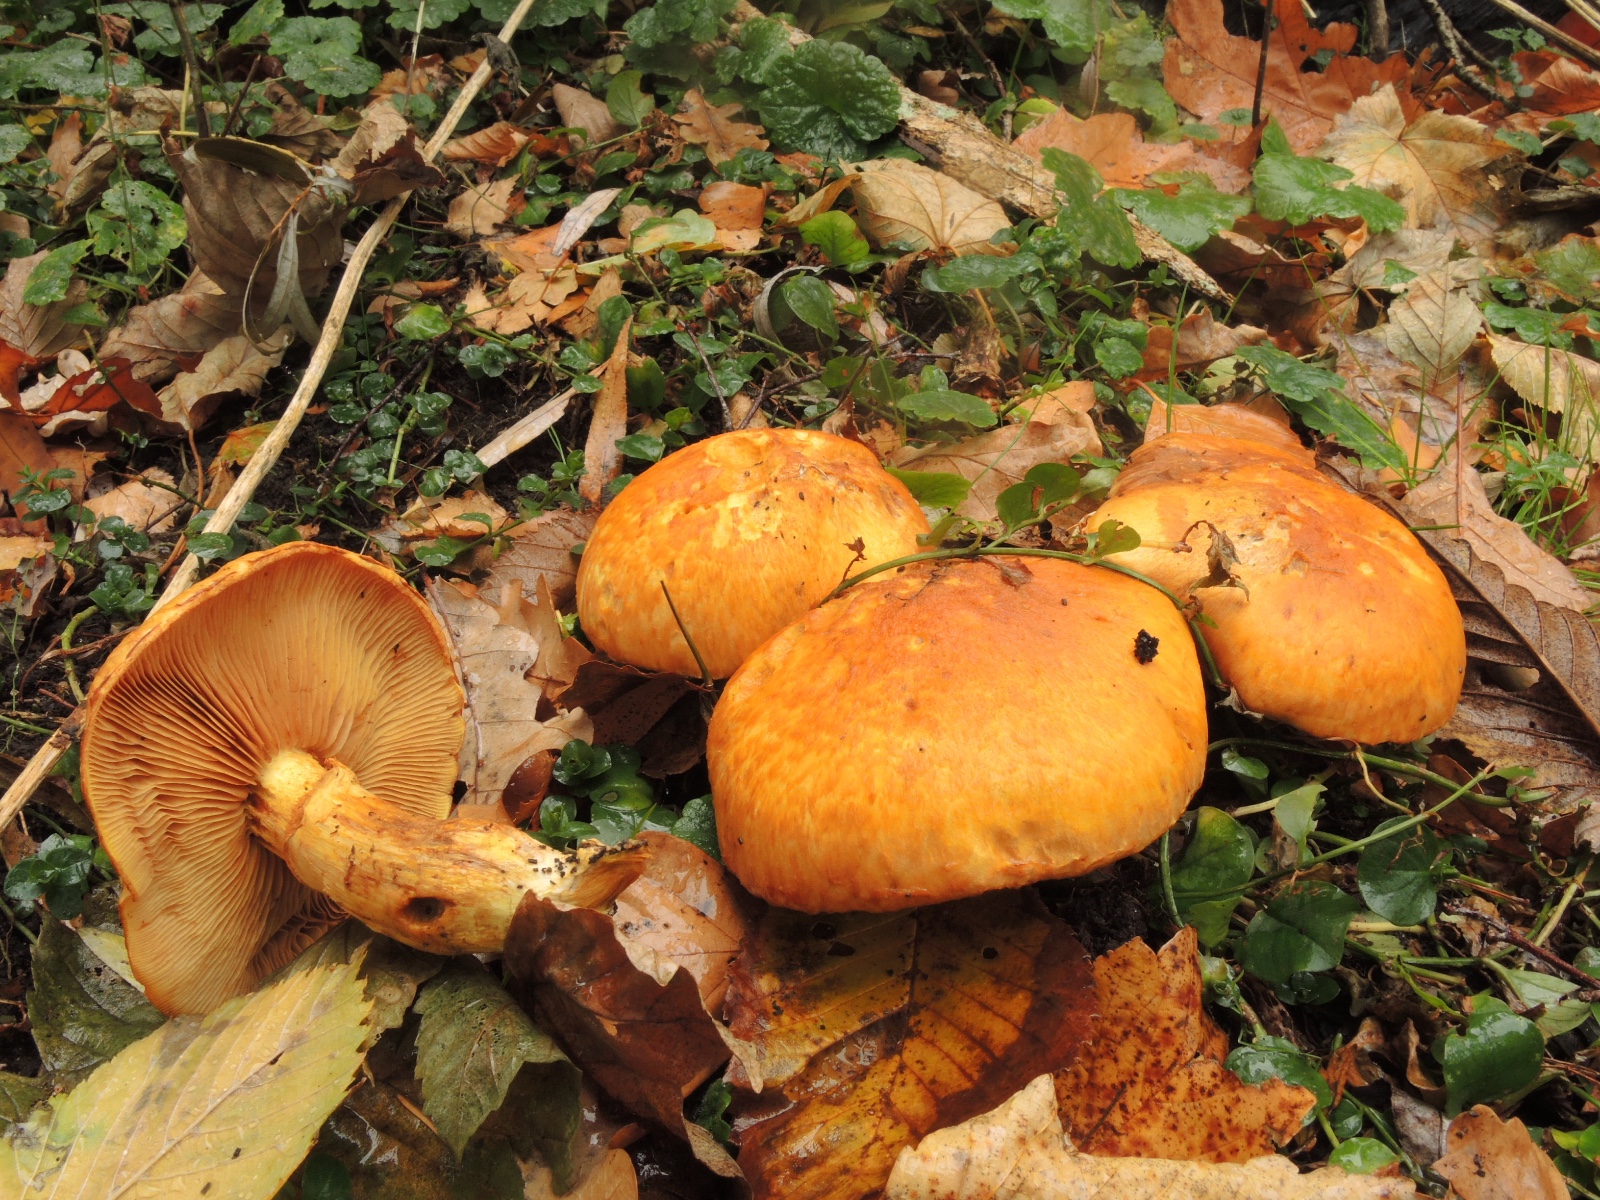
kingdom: Fungi
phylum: Basidiomycota
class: Agaricomycetes
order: Agaricales
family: Hymenogastraceae
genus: Gymnopilus
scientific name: Gymnopilus spectabilis
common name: fibret flammehat
